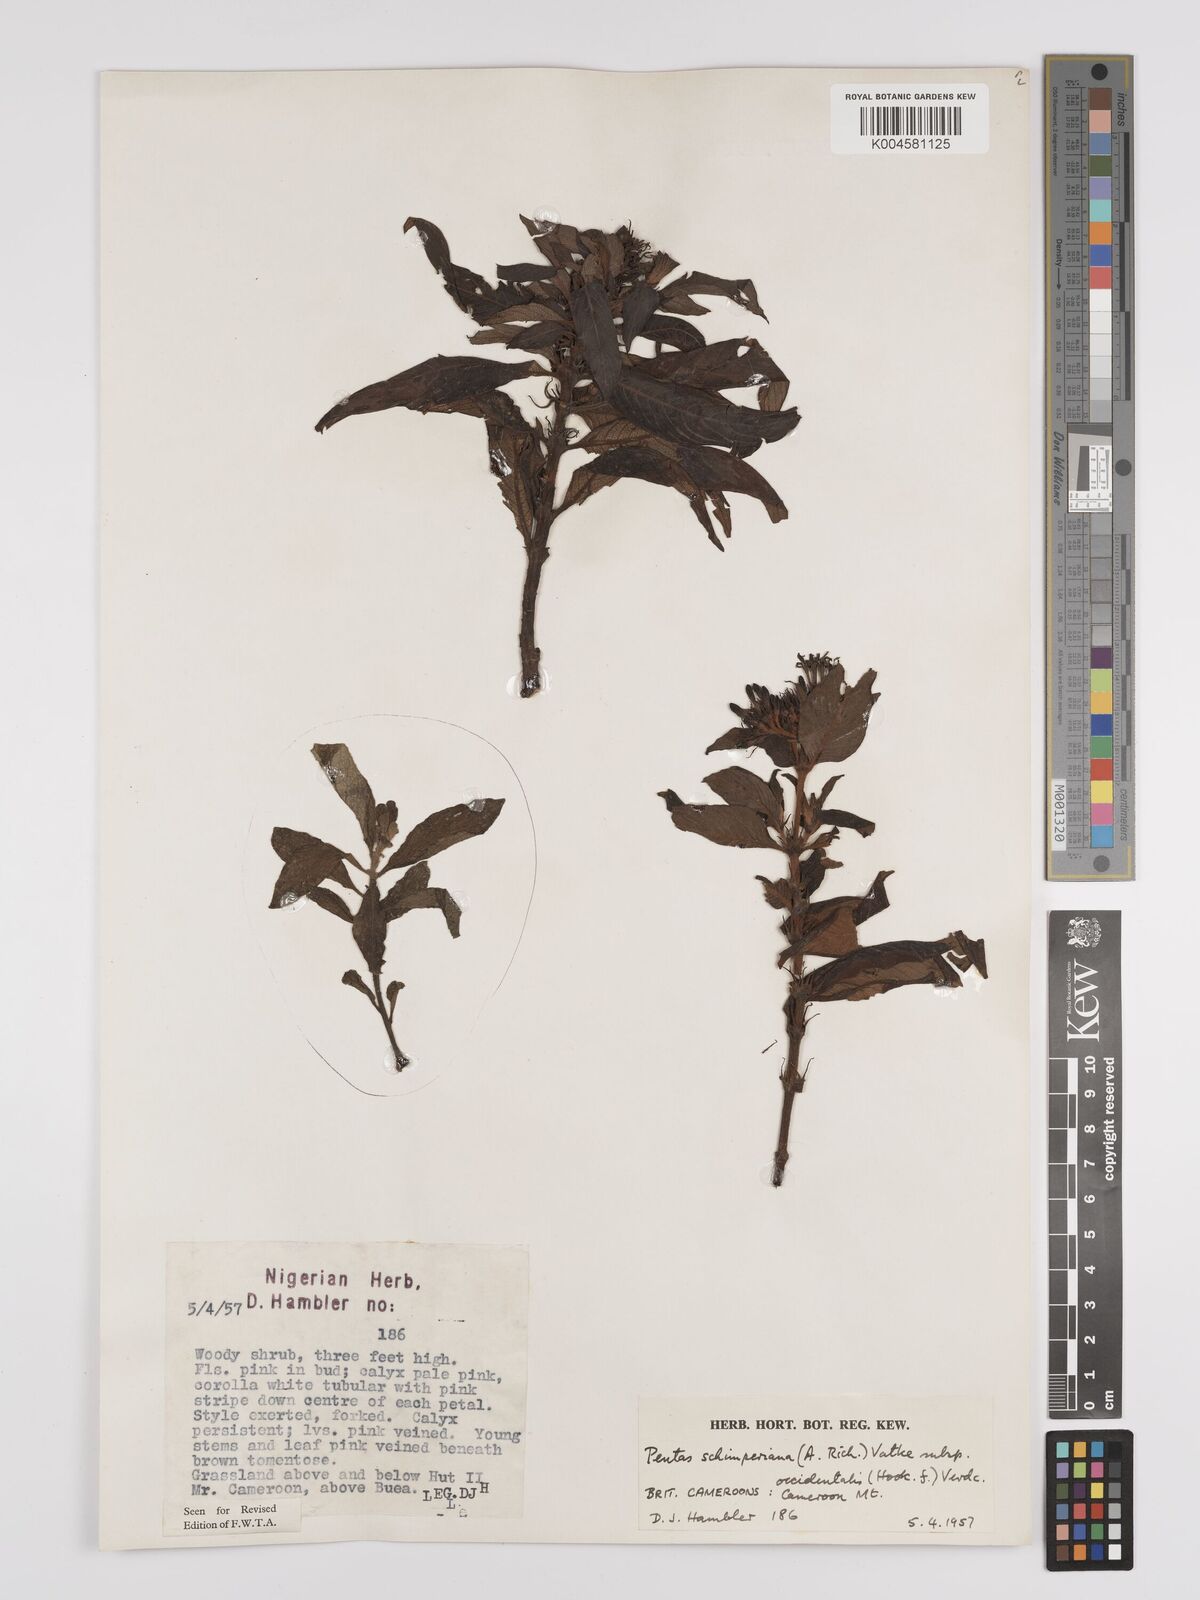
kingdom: Plantae
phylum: Tracheophyta
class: Magnoliopsida
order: Gentianales
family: Rubiaceae
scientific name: Rubiaceae
